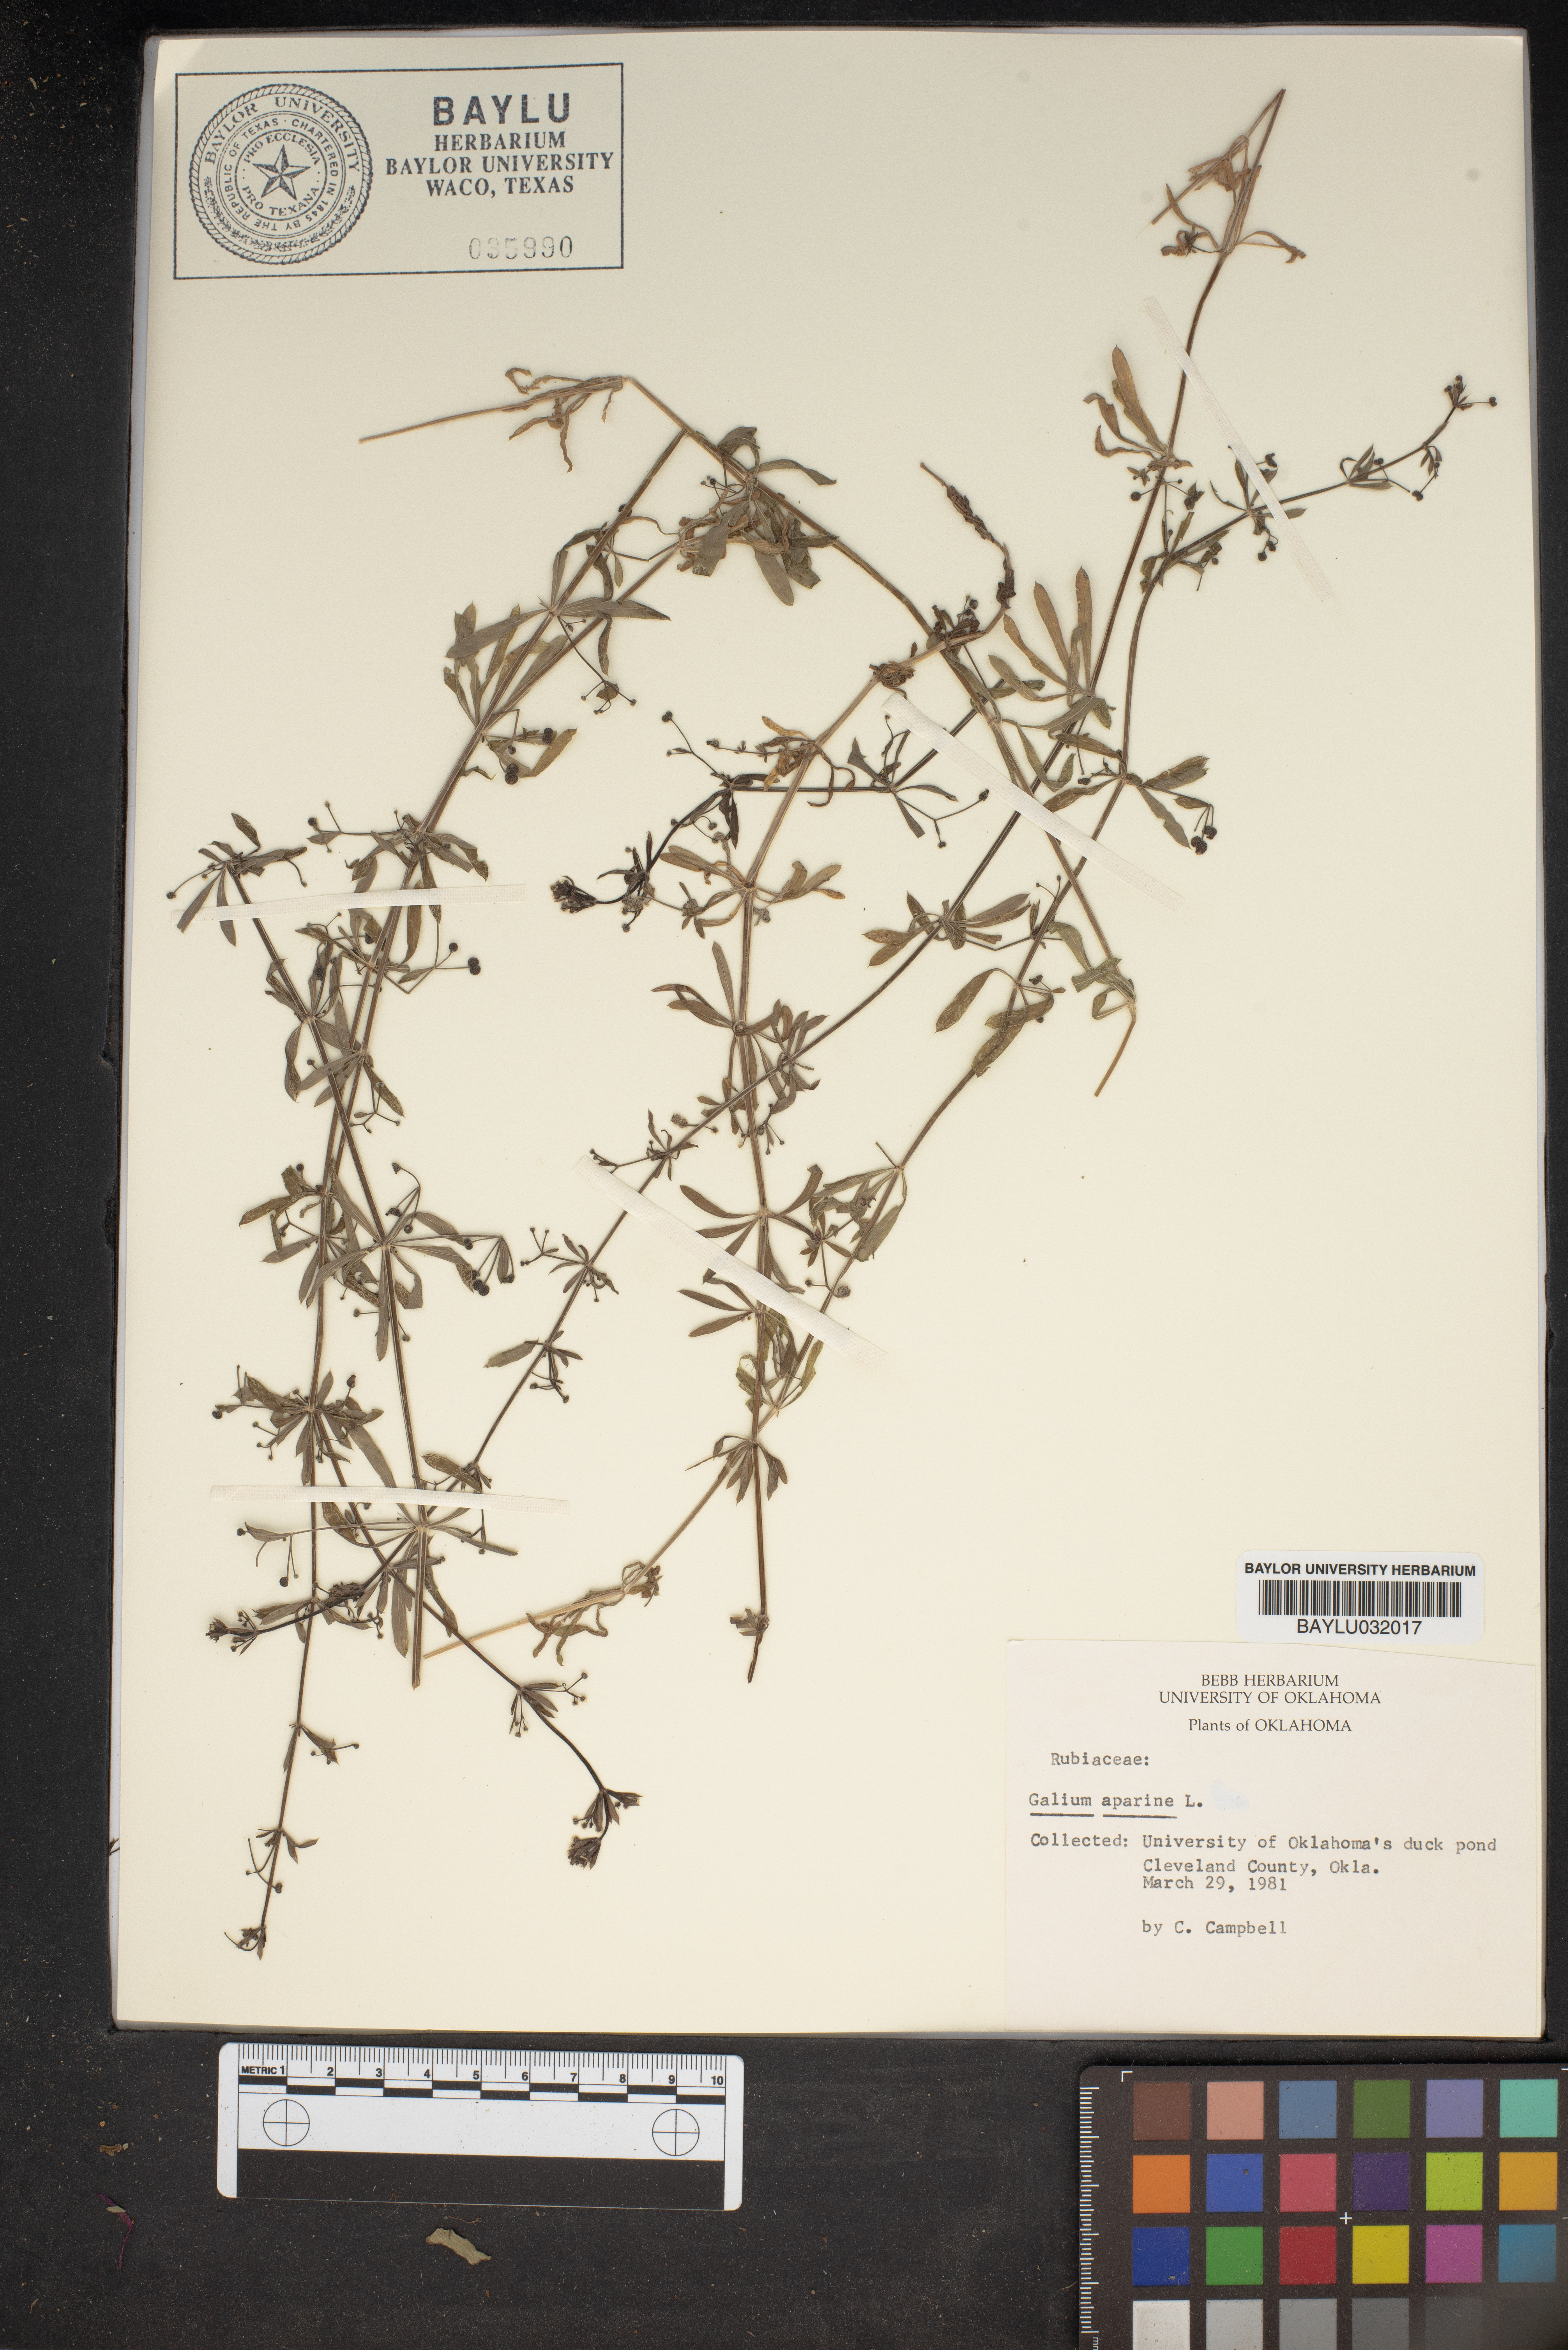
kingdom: Plantae
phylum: Tracheophyta
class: Magnoliopsida
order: Gentianales
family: Rubiaceae
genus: Galium
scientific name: Galium aparine
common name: Cleavers
